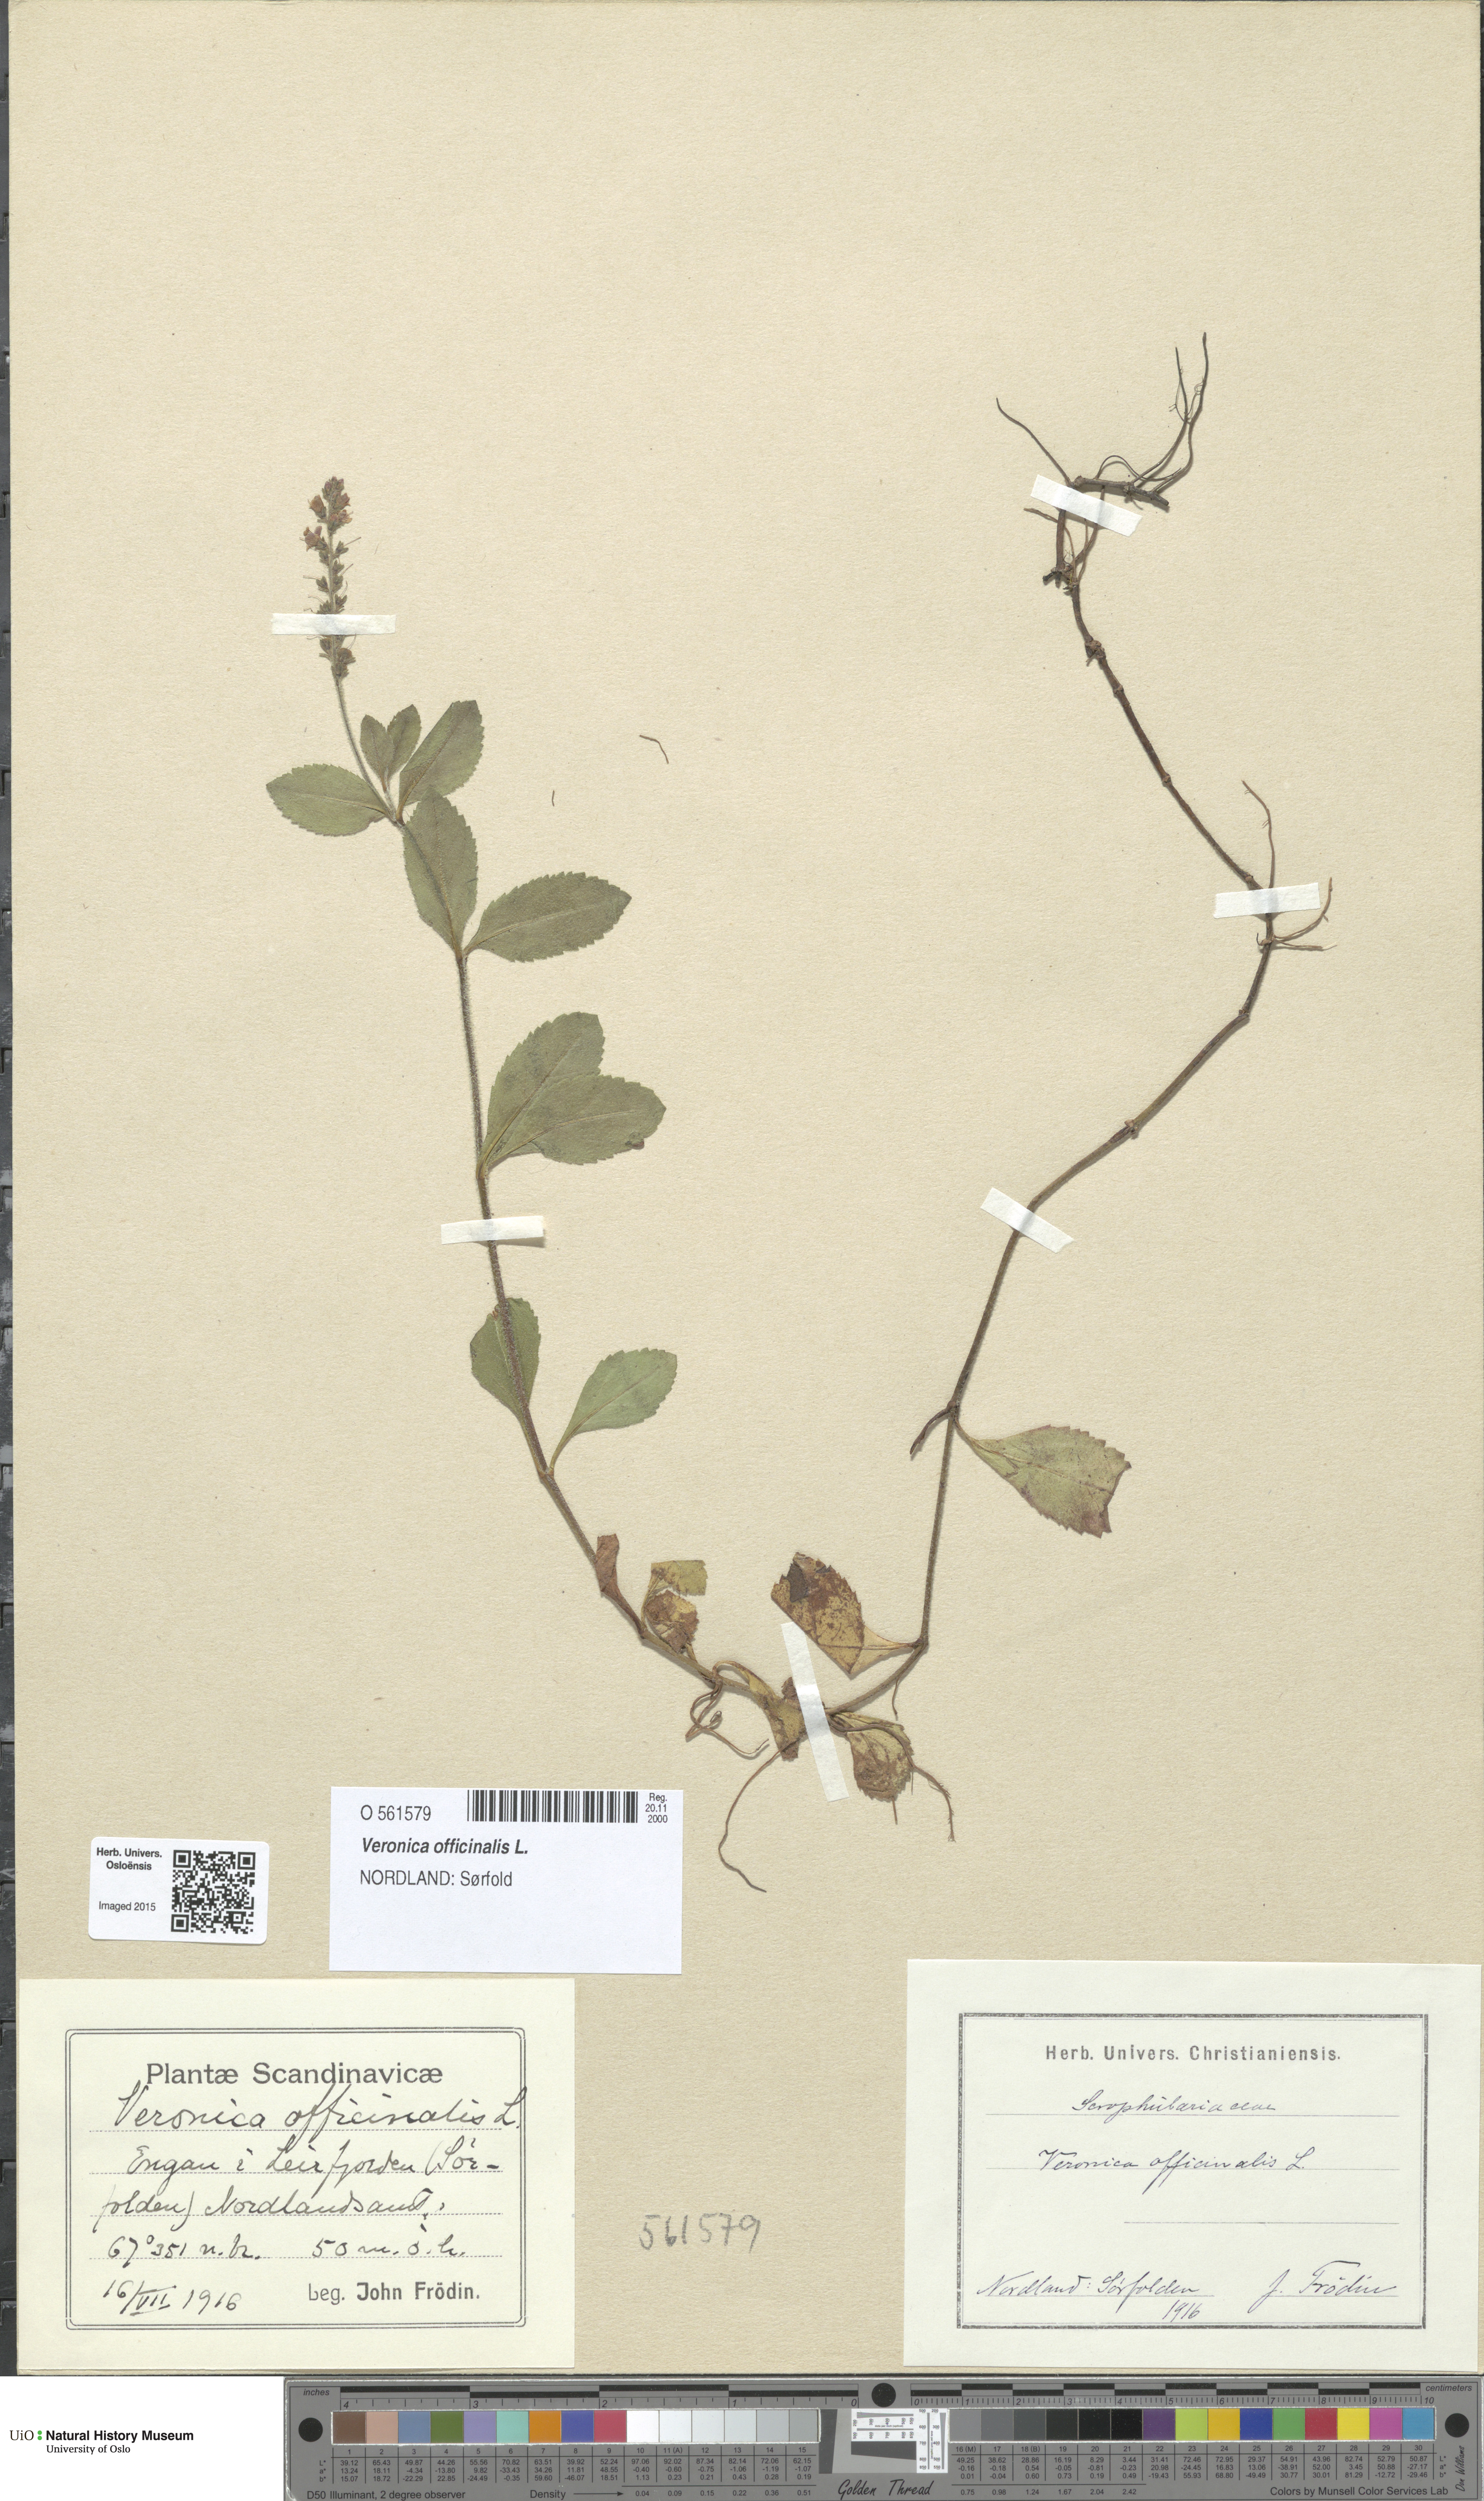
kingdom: Plantae
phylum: Tracheophyta
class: Magnoliopsida
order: Lamiales
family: Plantaginaceae
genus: Veronica
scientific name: Veronica officinalis
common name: Common speedwell
